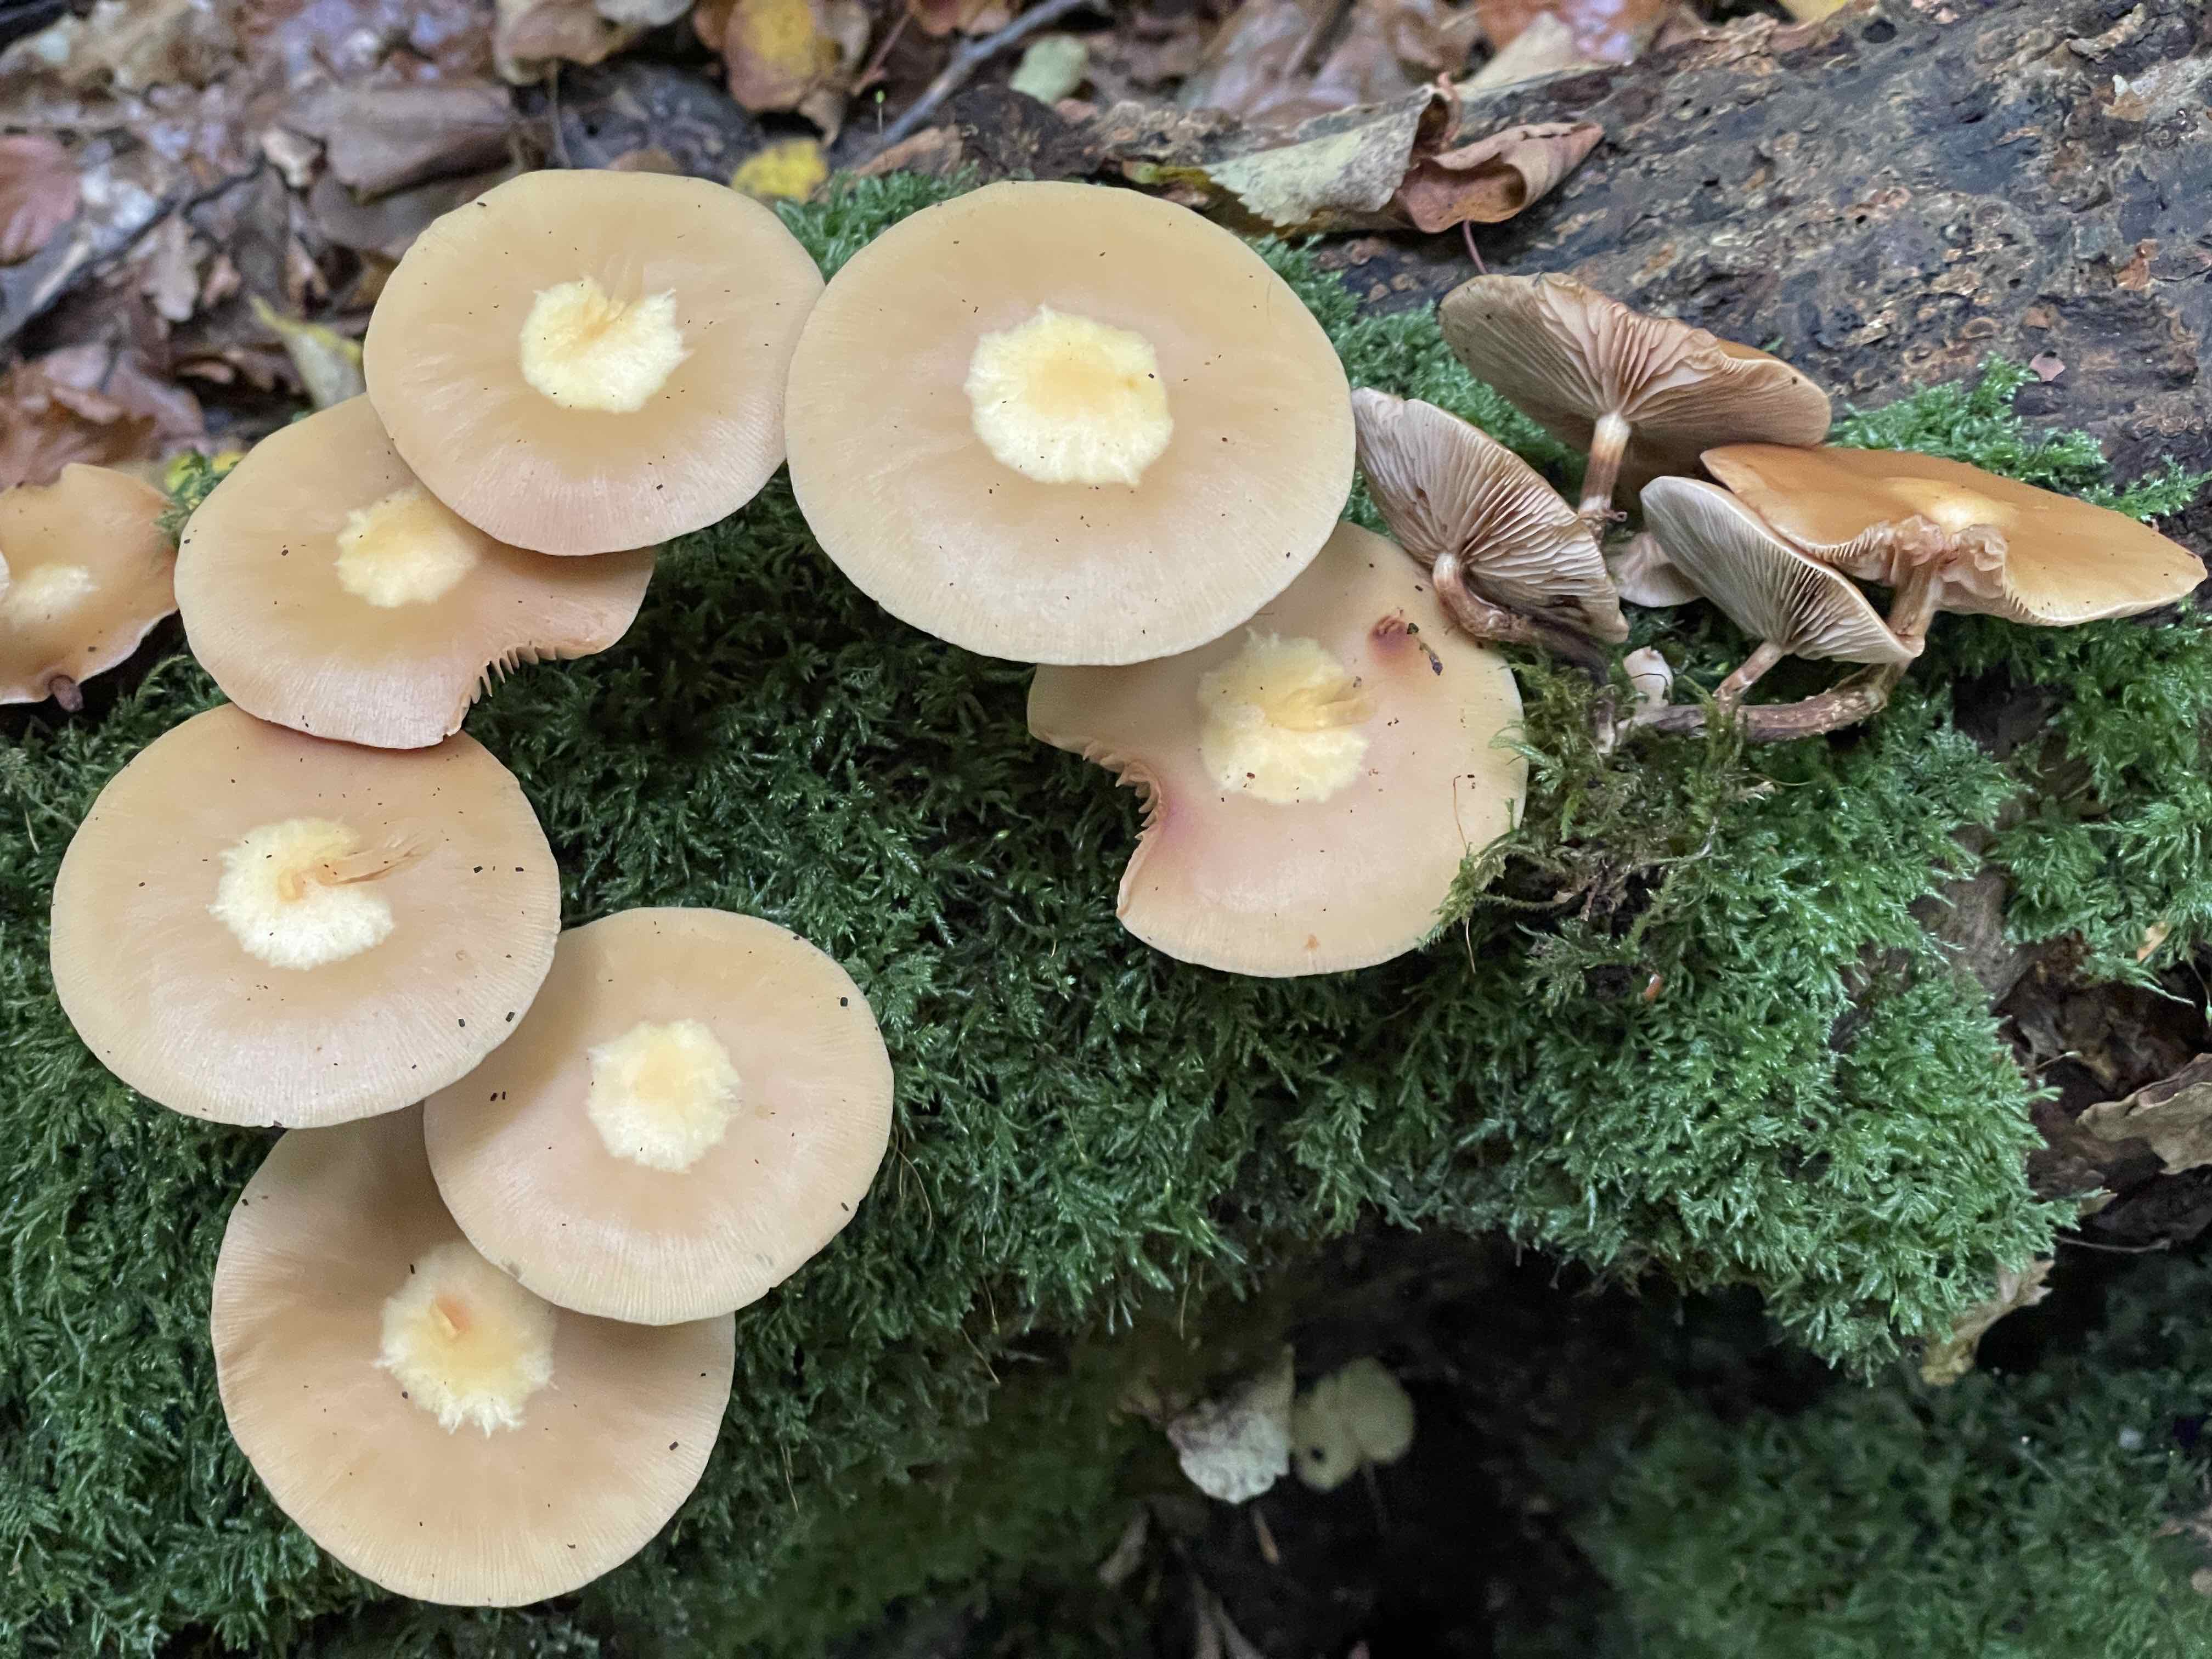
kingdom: Fungi
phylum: Basidiomycota
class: Agaricomycetes
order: Agaricales
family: Strophariaceae
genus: Kuehneromyces
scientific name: Kuehneromyces mutabilis
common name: foranderlig skælhat
